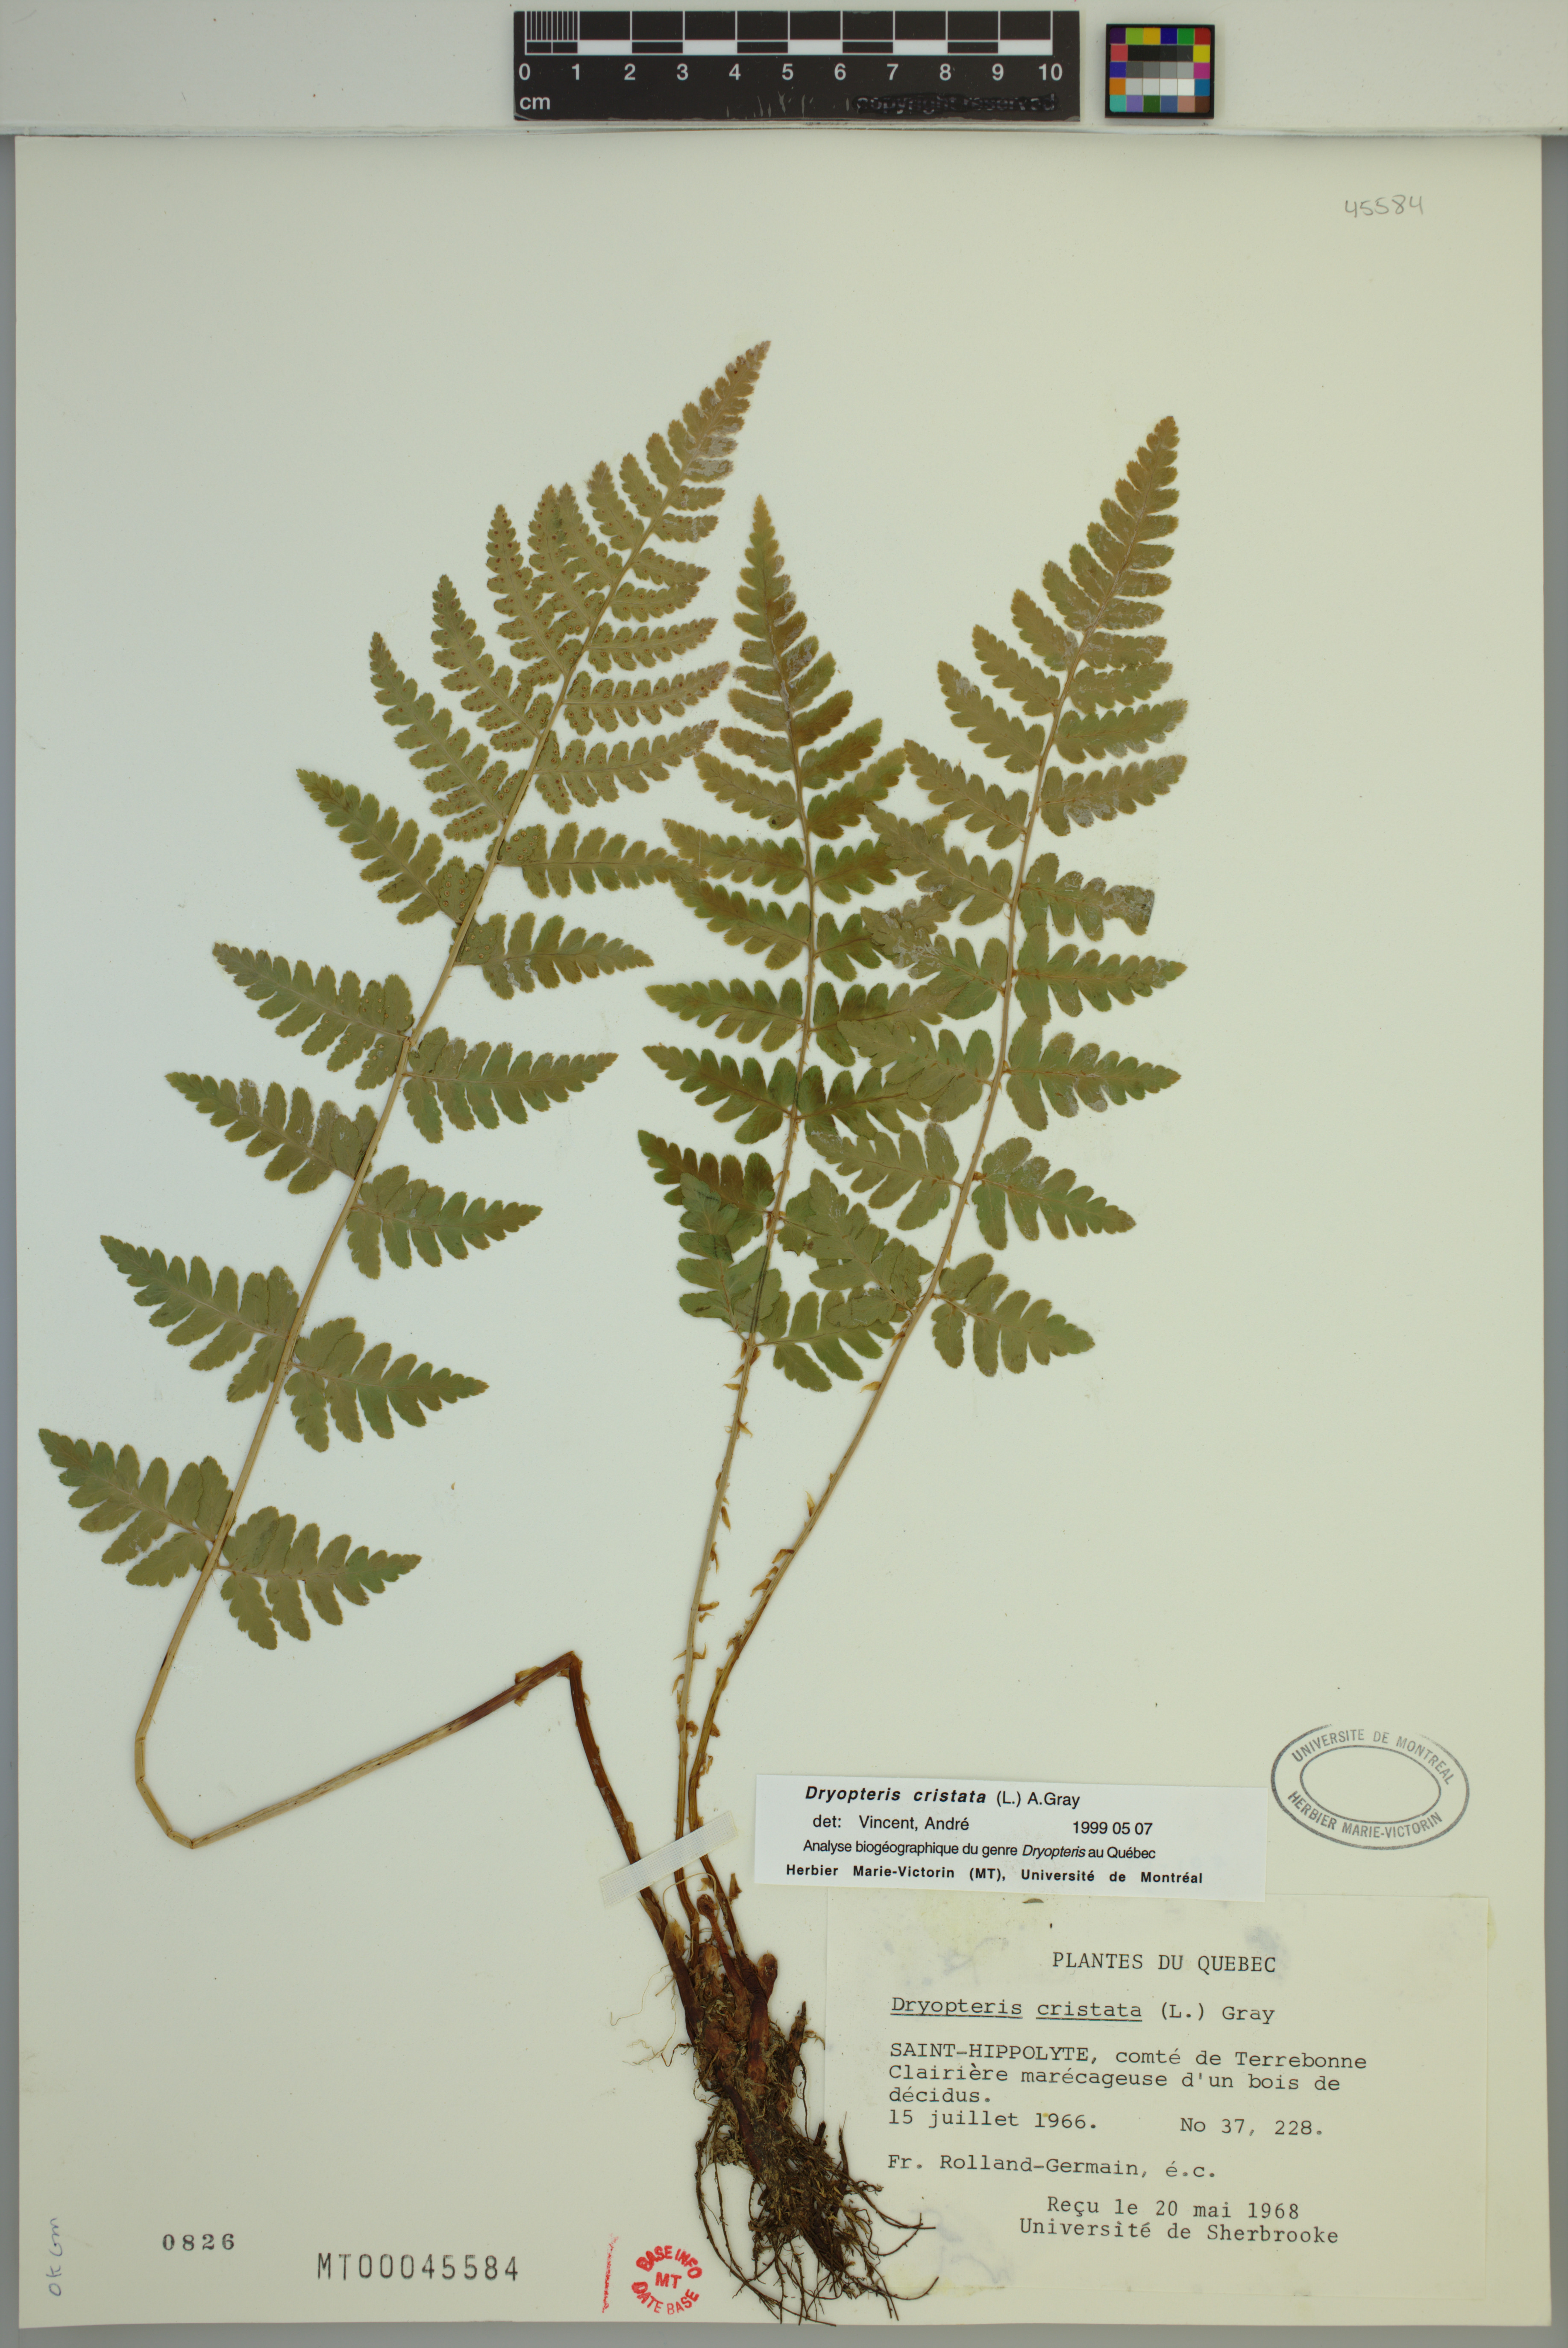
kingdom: Plantae
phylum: Tracheophyta
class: Polypodiopsida
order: Polypodiales
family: Dryopteridaceae
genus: Dryopteris
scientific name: Dryopteris cristata
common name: Crested wood fern
